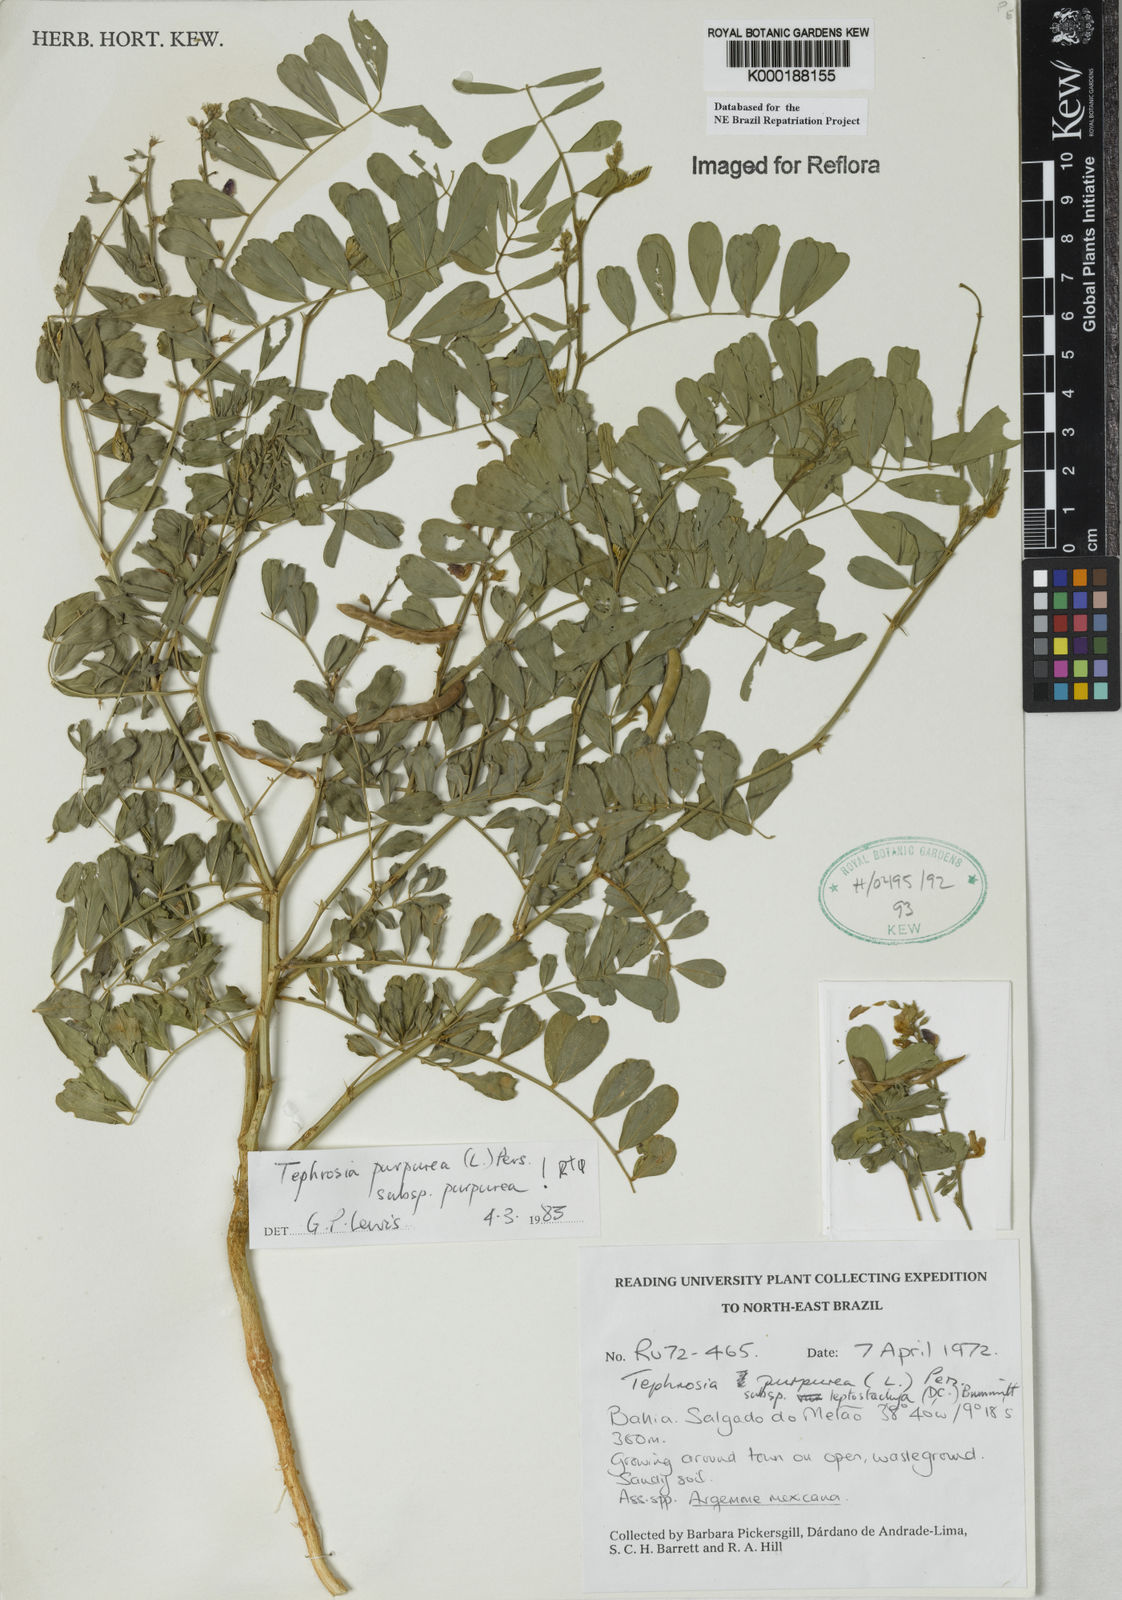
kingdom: Plantae
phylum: Tracheophyta
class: Magnoliopsida
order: Fabales
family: Fabaceae
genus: Tephrosia
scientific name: Tephrosia purpurea
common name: Fishpoison
